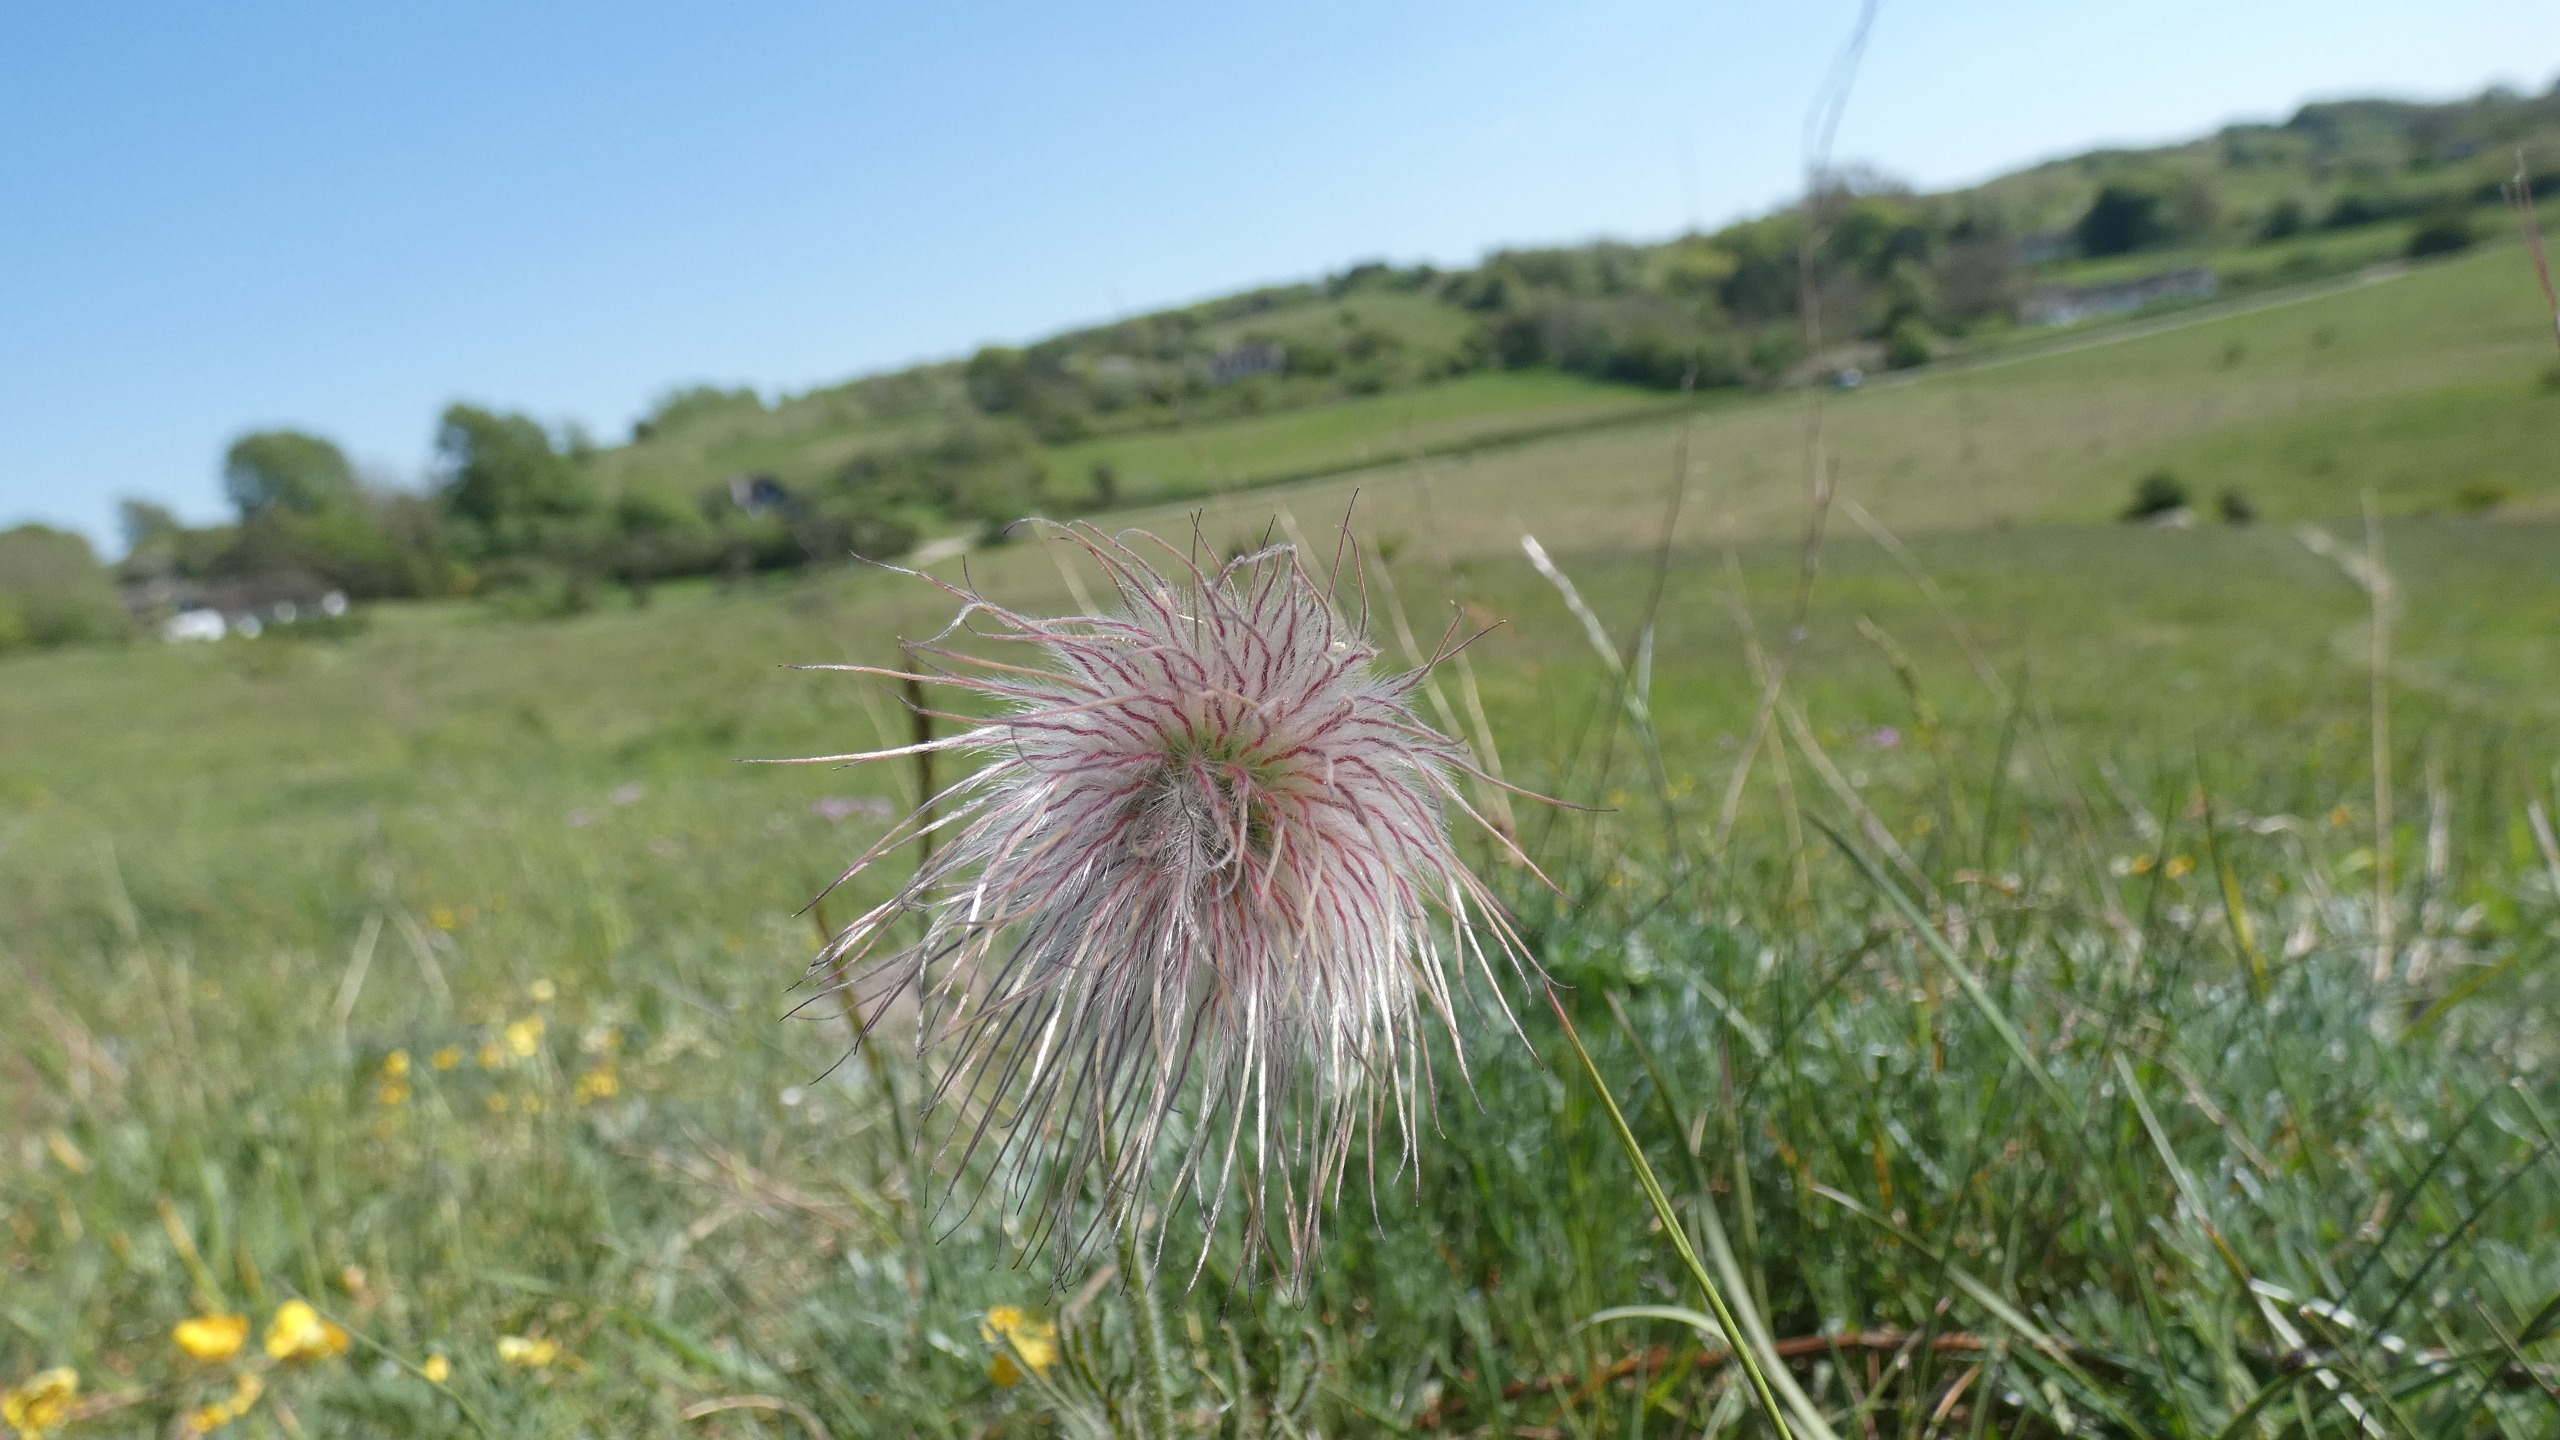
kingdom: Plantae
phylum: Tracheophyta
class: Magnoliopsida
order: Ranunculales
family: Ranunculaceae
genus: Pulsatilla
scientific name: Pulsatilla pratensis
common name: Nikkende kobjælde
